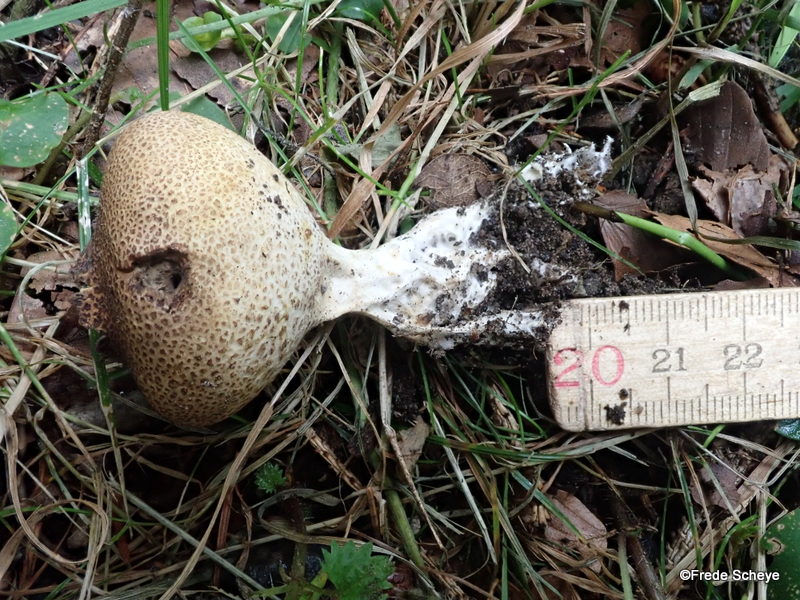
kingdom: Fungi
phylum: Basidiomycota
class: Agaricomycetes
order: Boletales
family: Sclerodermataceae
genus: Scleroderma
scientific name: Scleroderma verrucosum
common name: stilket bruskbold
